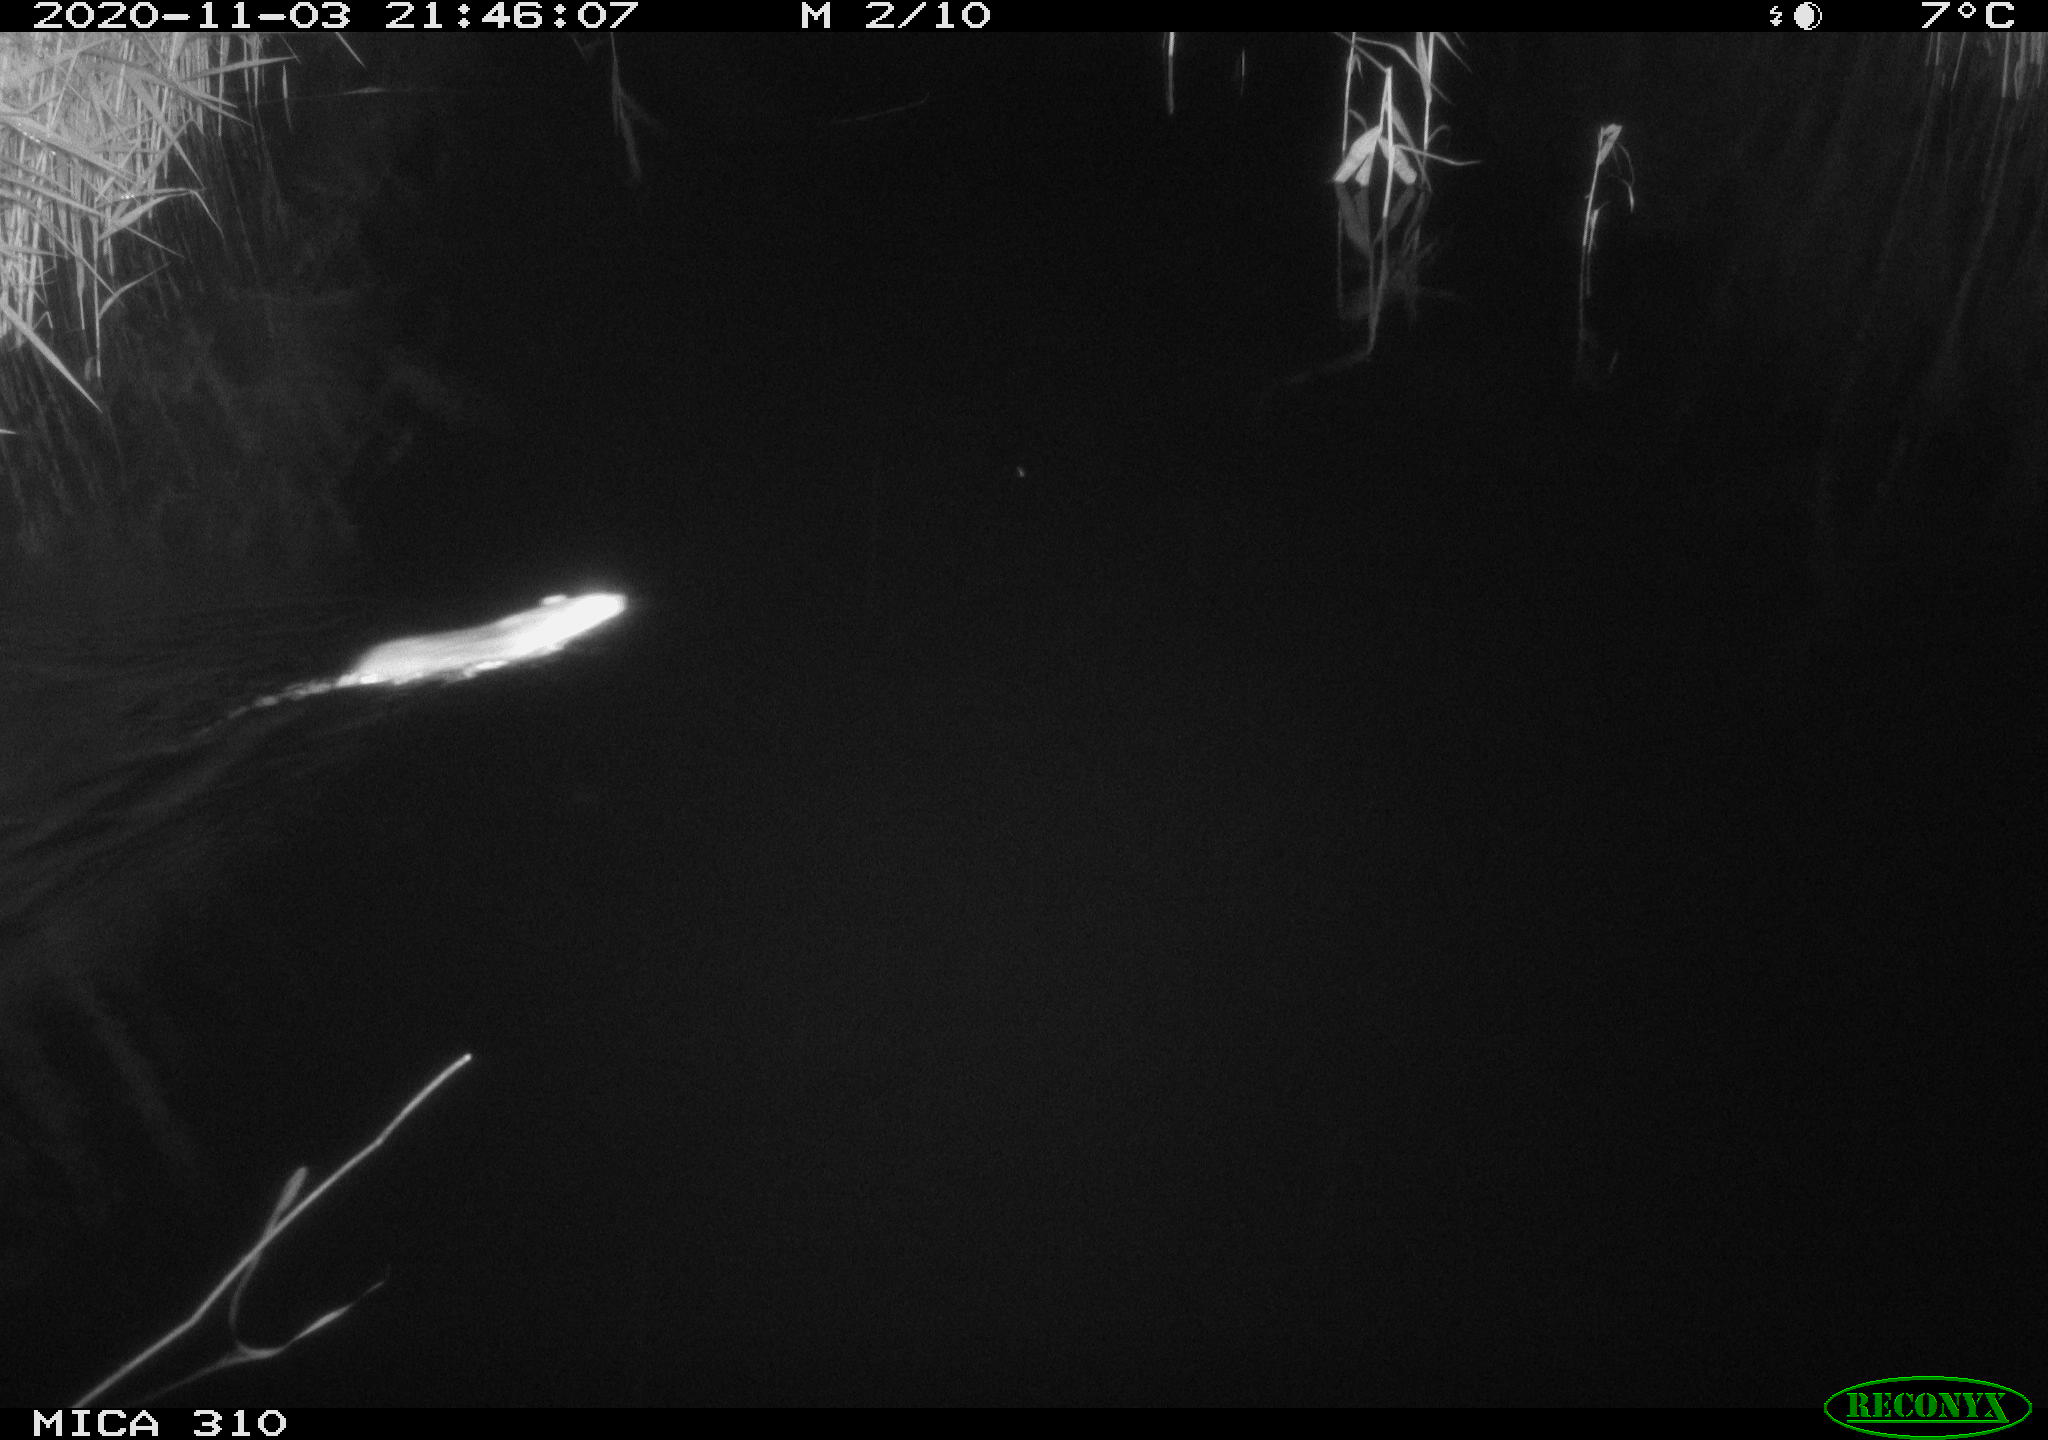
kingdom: Animalia
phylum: Chordata
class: Mammalia
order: Rodentia
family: Muridae
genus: Rattus
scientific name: Rattus norvegicus
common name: Brown rat
